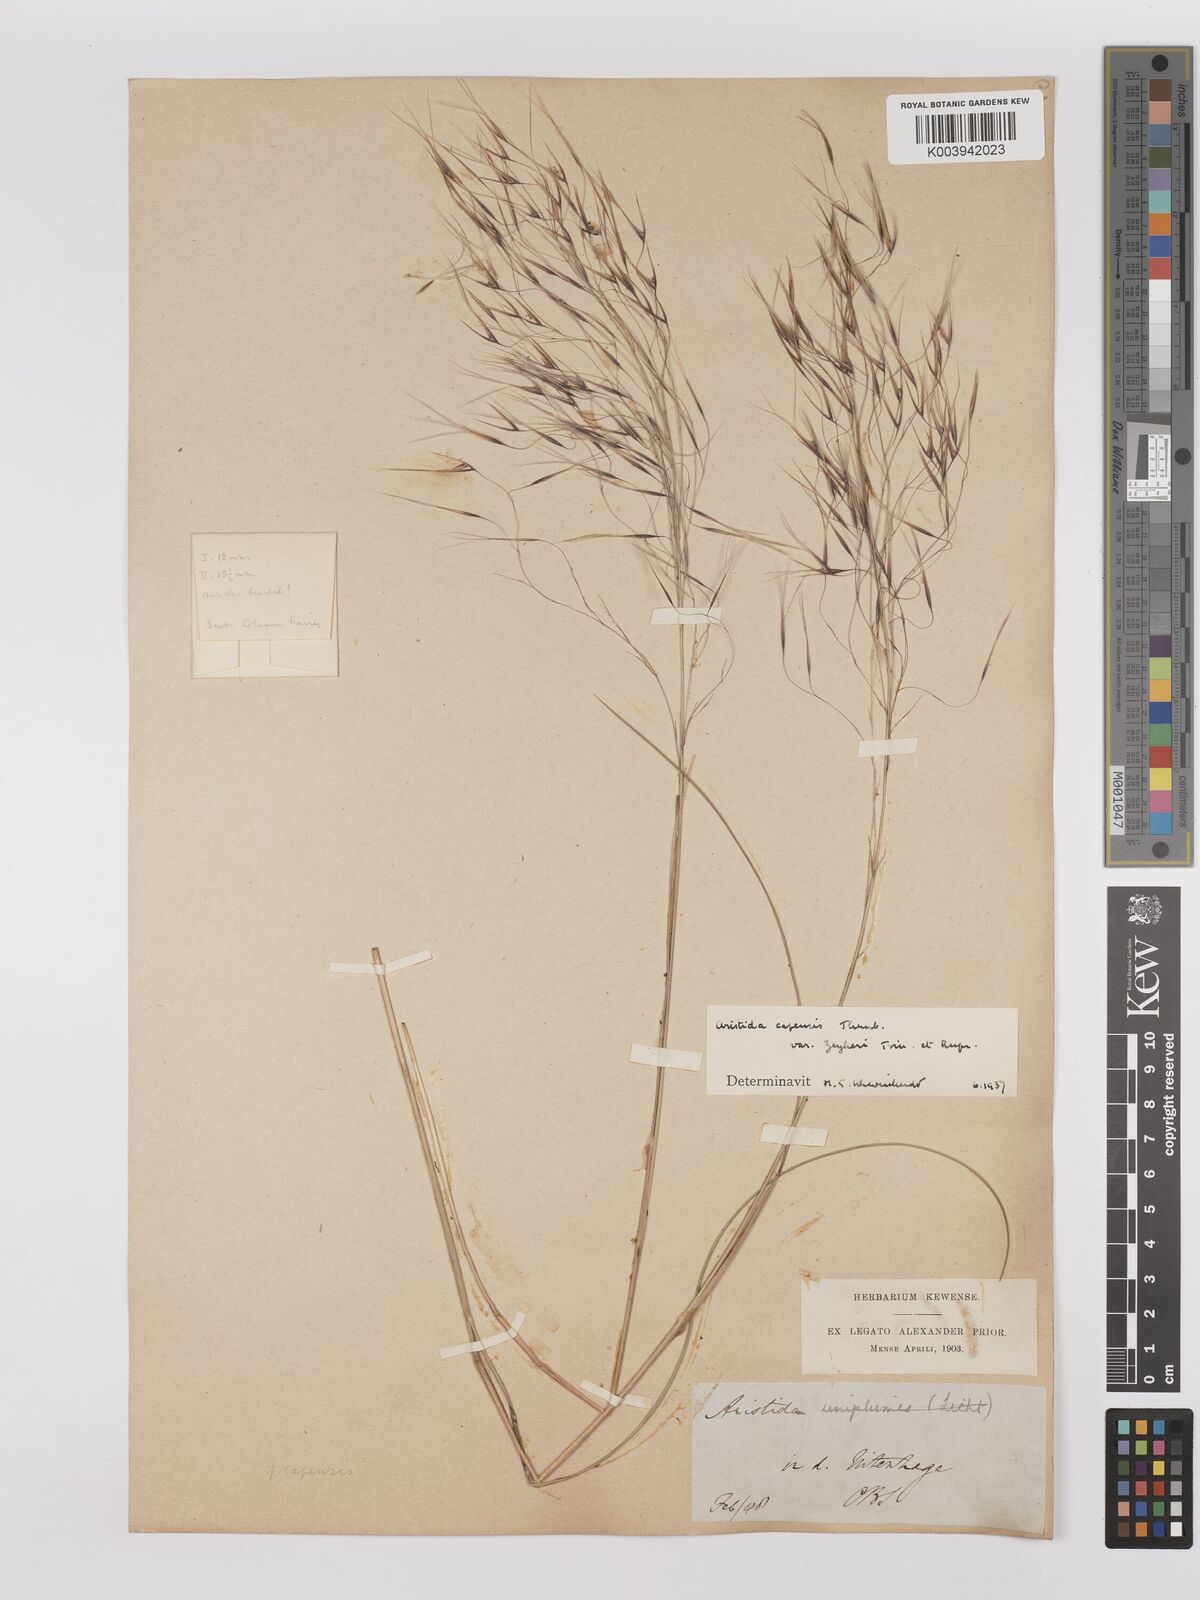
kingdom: Plantae
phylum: Tracheophyta
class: Liliopsida
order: Poales
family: Poaceae
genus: Stipagrostis
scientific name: Stipagrostis zeyheri
